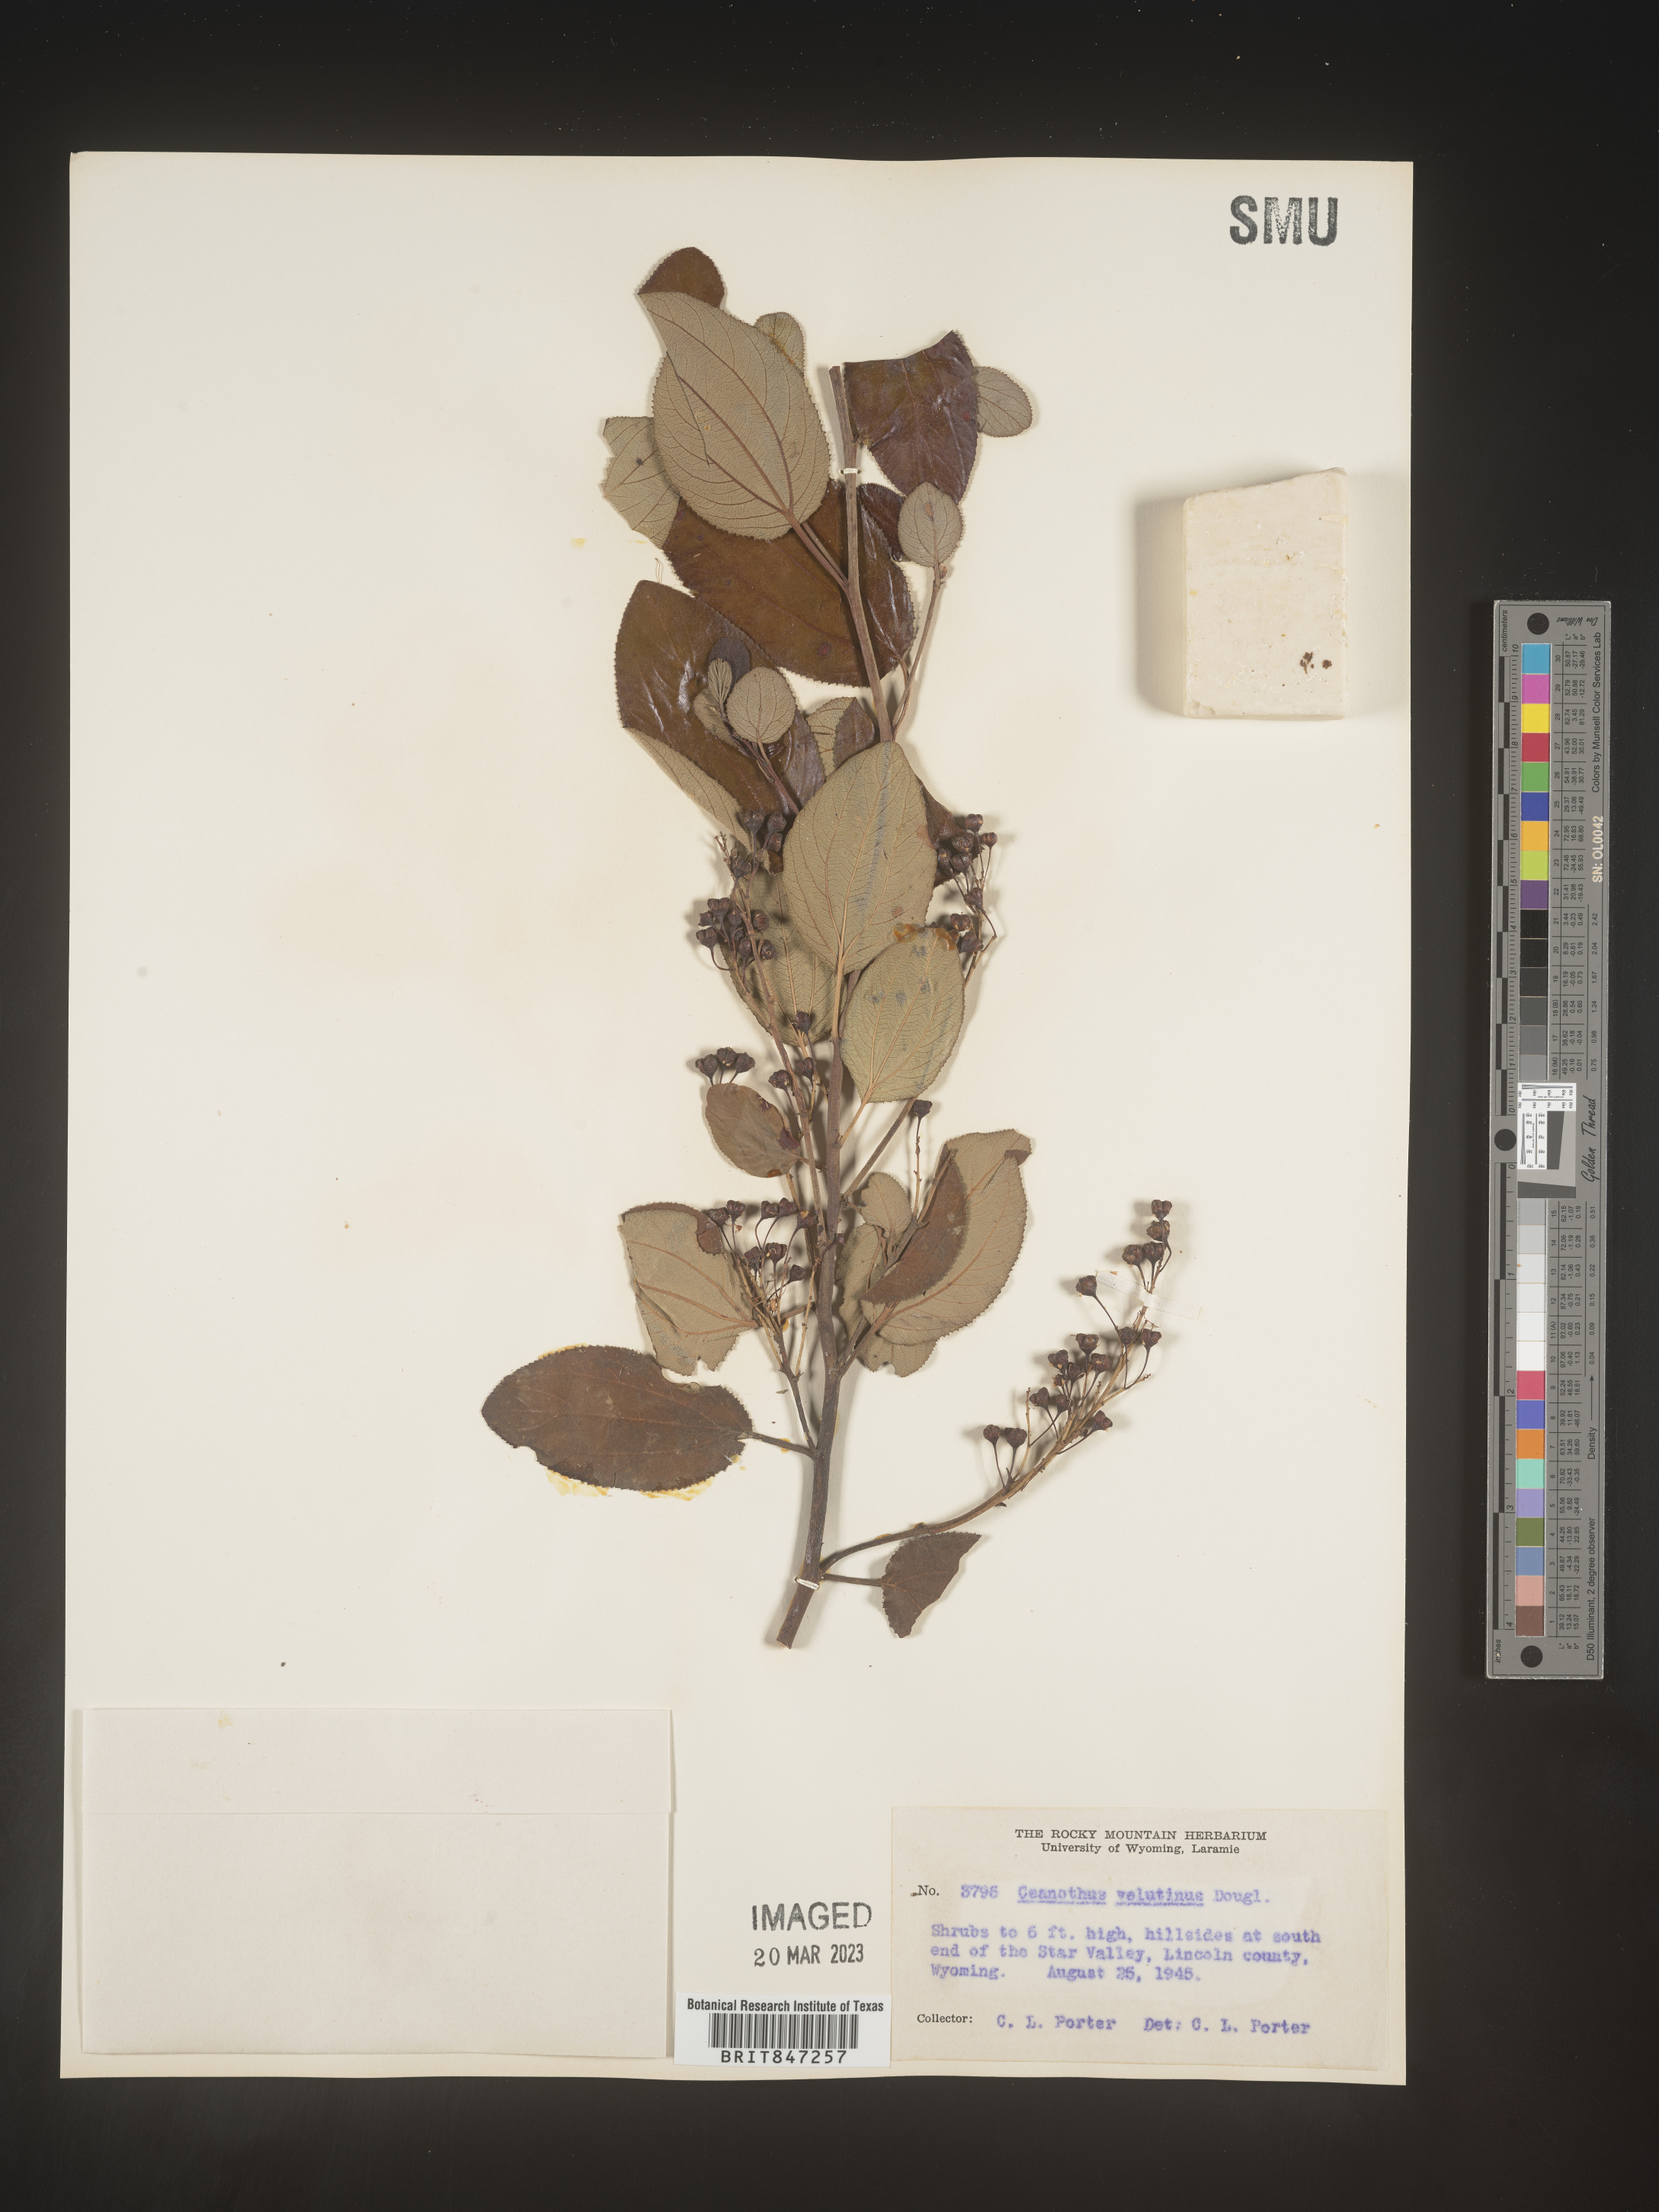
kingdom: Plantae
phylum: Tracheophyta
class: Magnoliopsida
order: Rosales
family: Rhamnaceae
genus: Ceanothus
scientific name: Ceanothus velutinus
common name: Snowbrush
